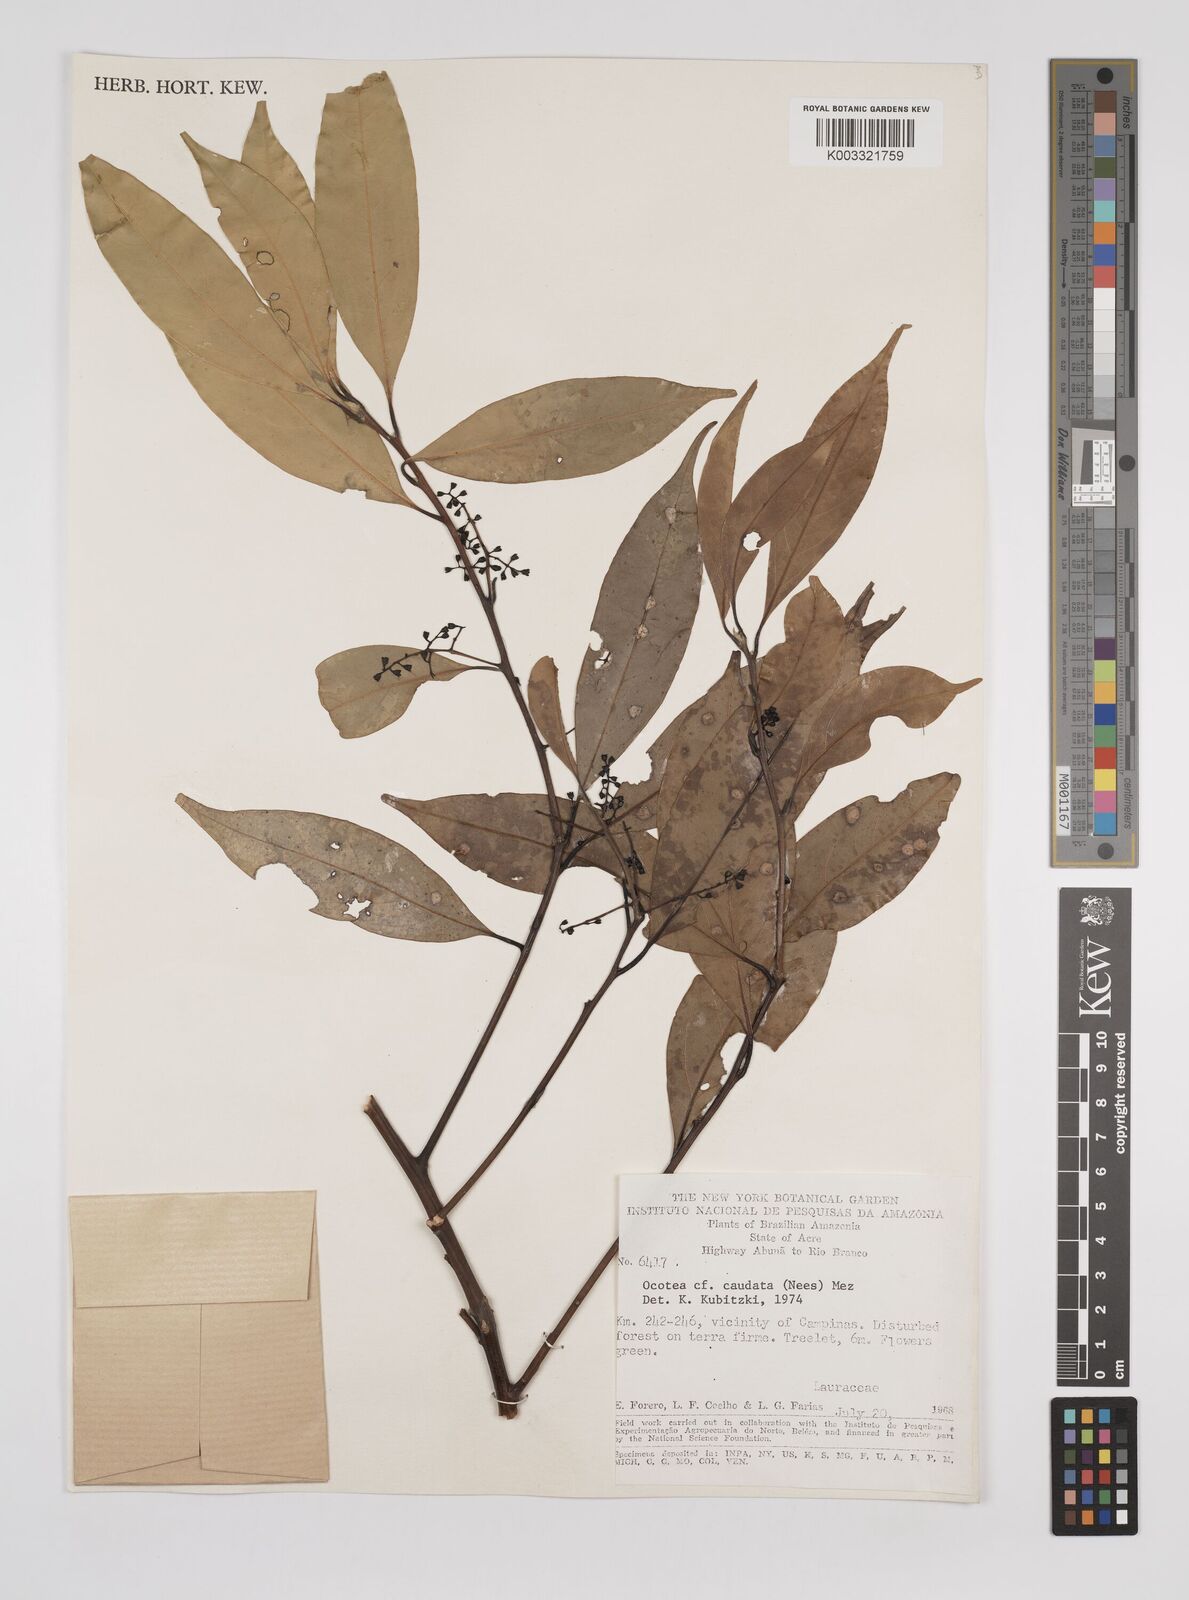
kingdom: Plantae
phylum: Tracheophyta
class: Magnoliopsida
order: Laurales
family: Lauraceae
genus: Ocotea
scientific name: Ocotea leptobotra
